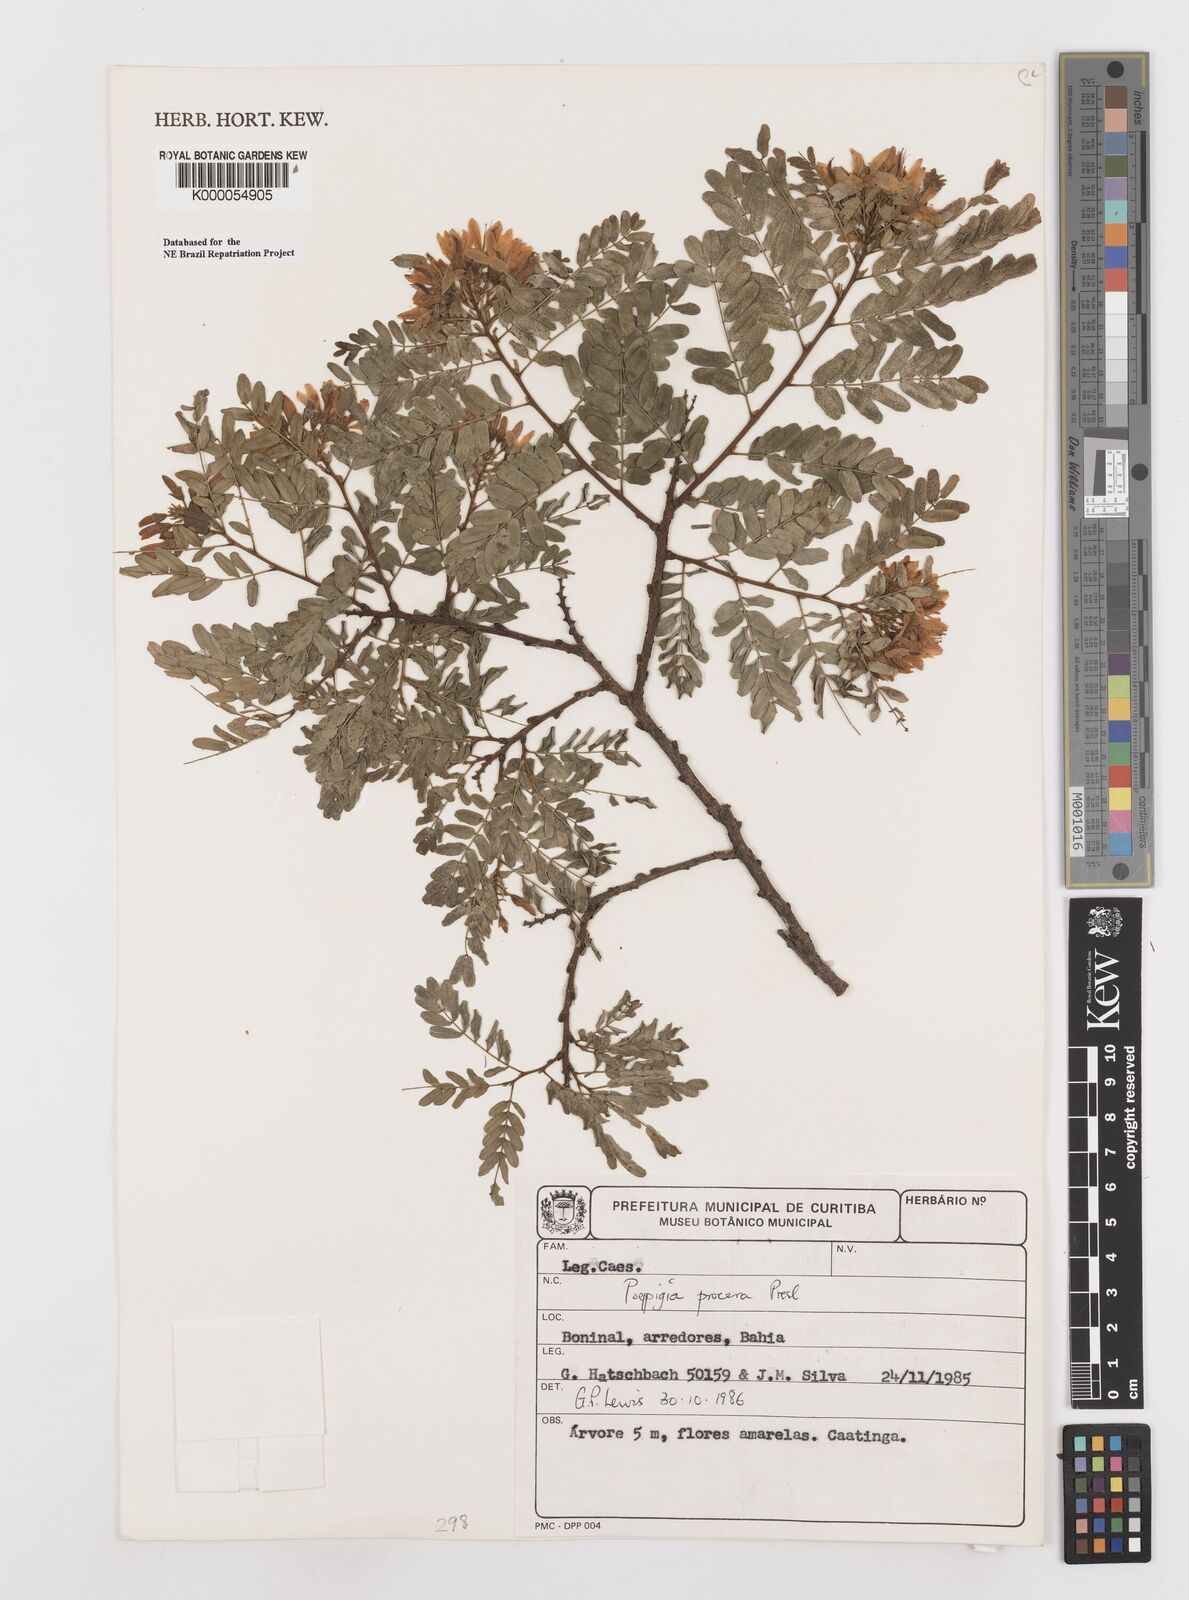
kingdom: Plantae
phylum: Tracheophyta
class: Magnoliopsida
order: Fabales
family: Fabaceae
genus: Poeppigia
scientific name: Poeppigia procera
